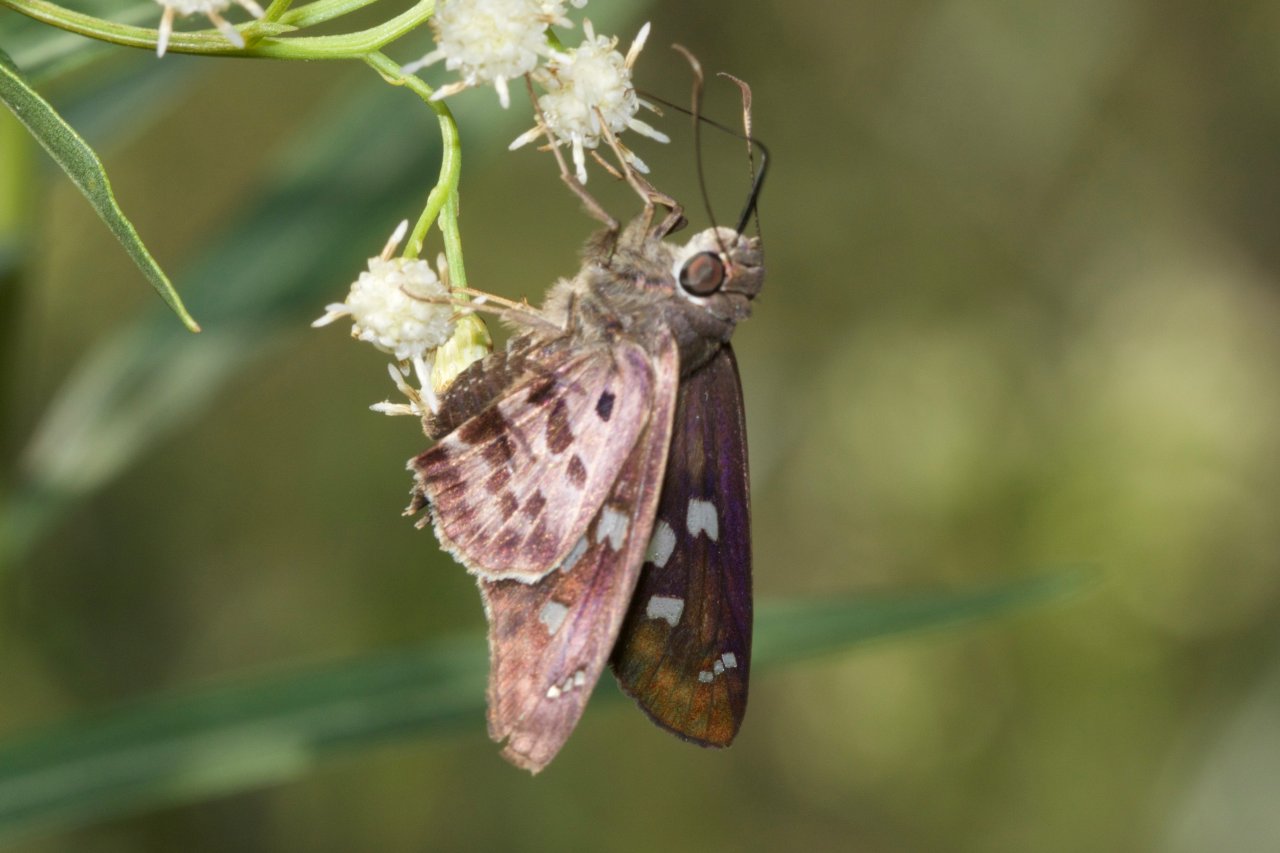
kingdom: Animalia
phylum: Arthropoda
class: Insecta
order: Lepidoptera
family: Hesperiidae
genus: Polygonus
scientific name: Polygonus leo
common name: Hammock Skipper
